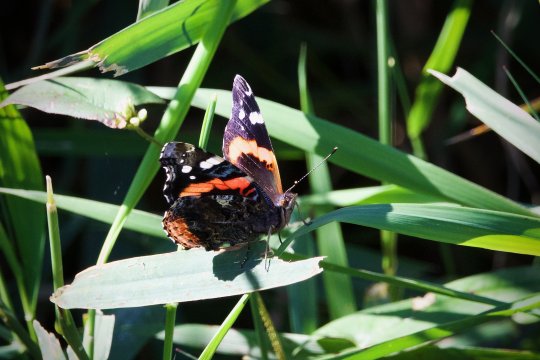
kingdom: Animalia
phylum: Arthropoda
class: Insecta
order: Lepidoptera
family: Nymphalidae
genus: Vanessa
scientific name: Vanessa atalanta
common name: Red Admiral
